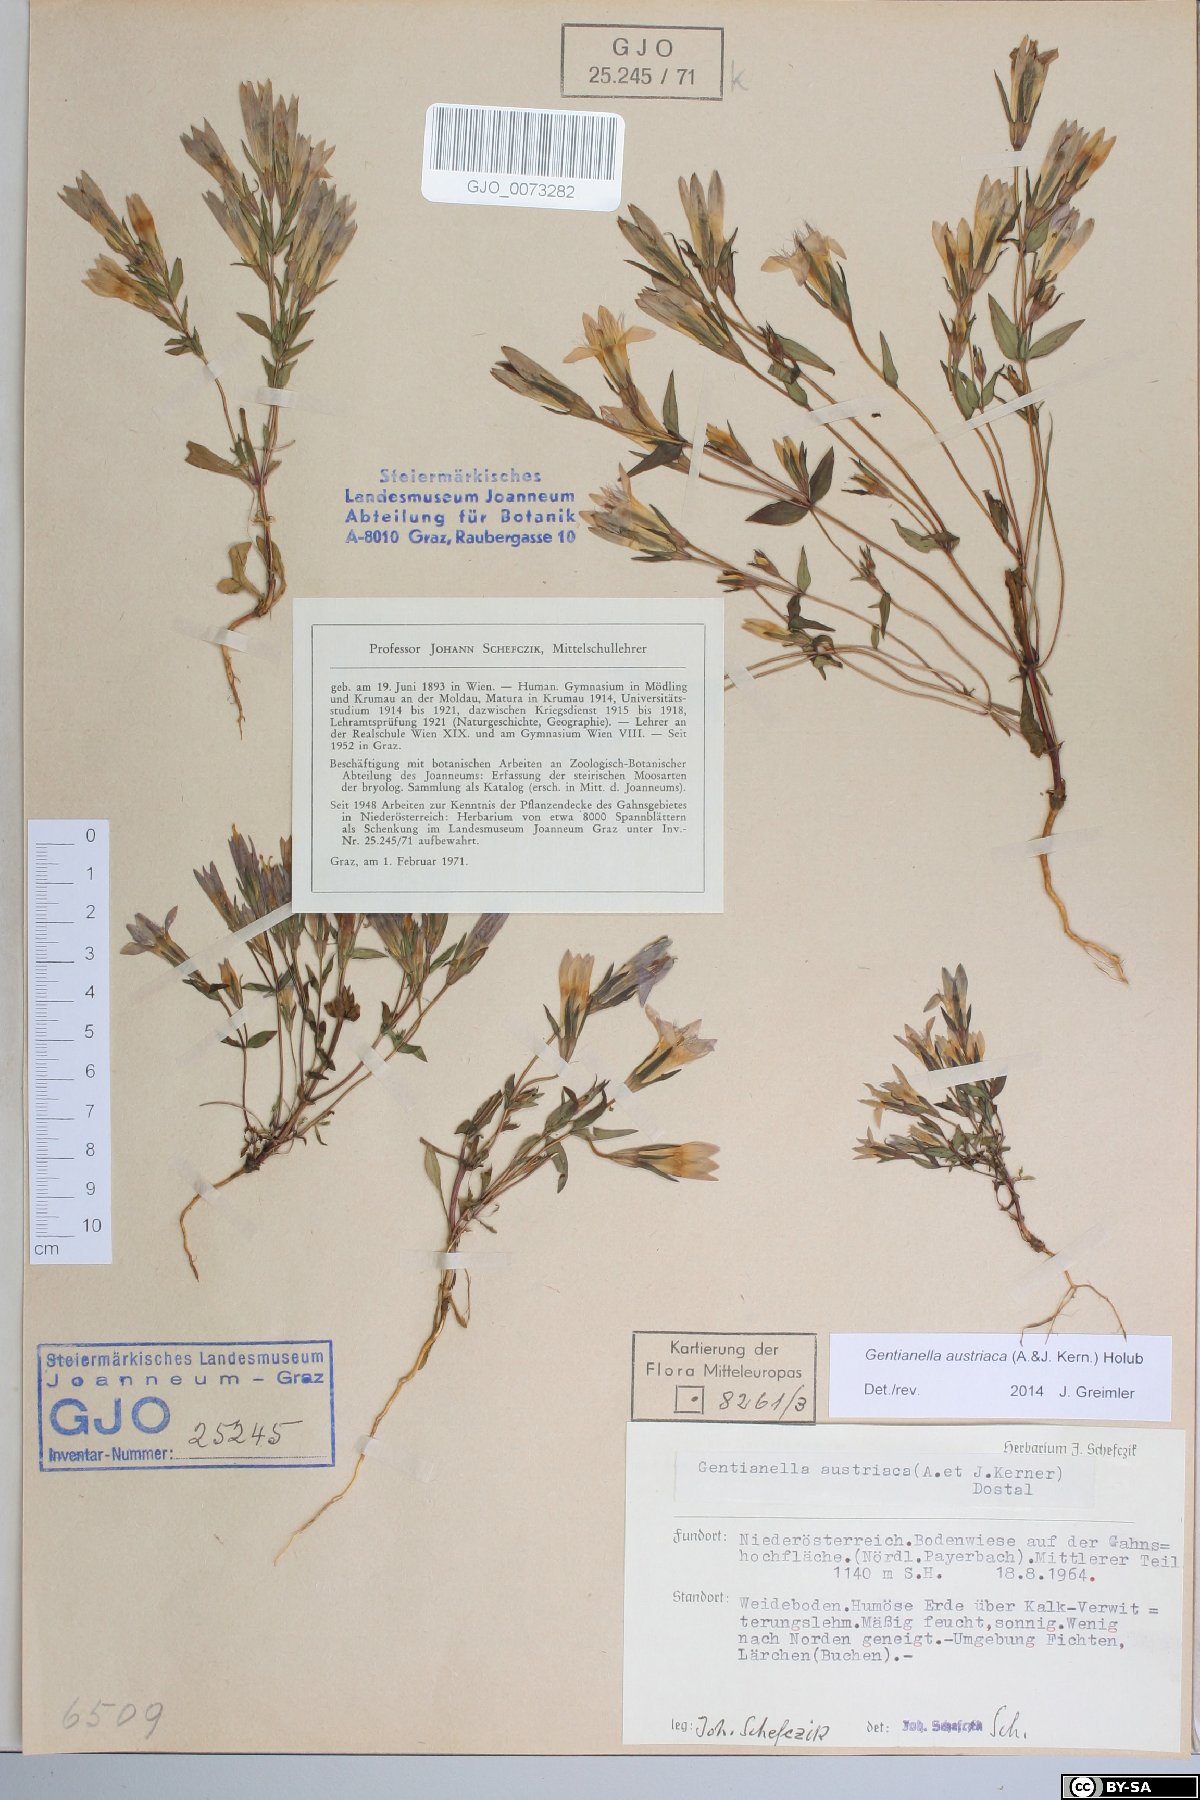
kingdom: Plantae
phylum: Tracheophyta
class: Magnoliopsida
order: Gentianales
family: Gentianaceae
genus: Gentianella
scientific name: Gentianella austriaca
